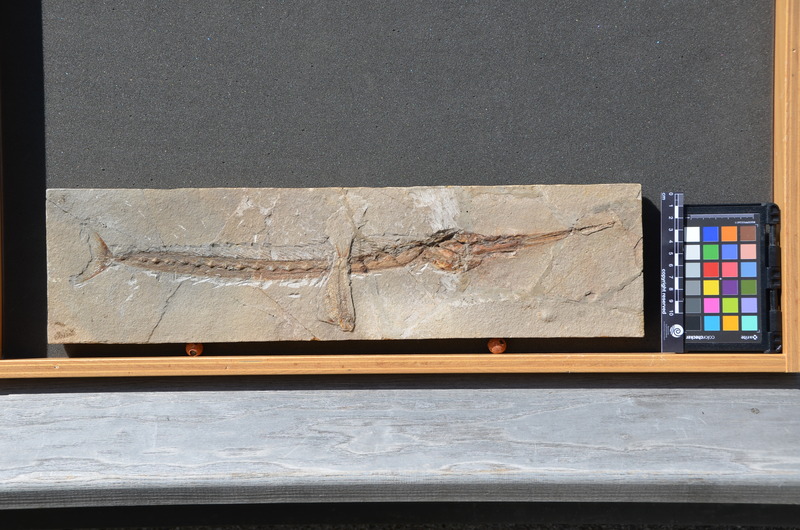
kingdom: Animalia
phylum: Chordata
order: Perciformes
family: Blochiidae
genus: Blochius
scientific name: Blochius longirostris
